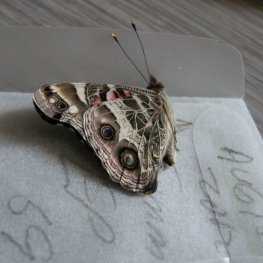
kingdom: Animalia
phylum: Arthropoda
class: Insecta
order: Lepidoptera
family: Nymphalidae
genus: Vanessa
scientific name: Vanessa virginiensis
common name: American Lady
